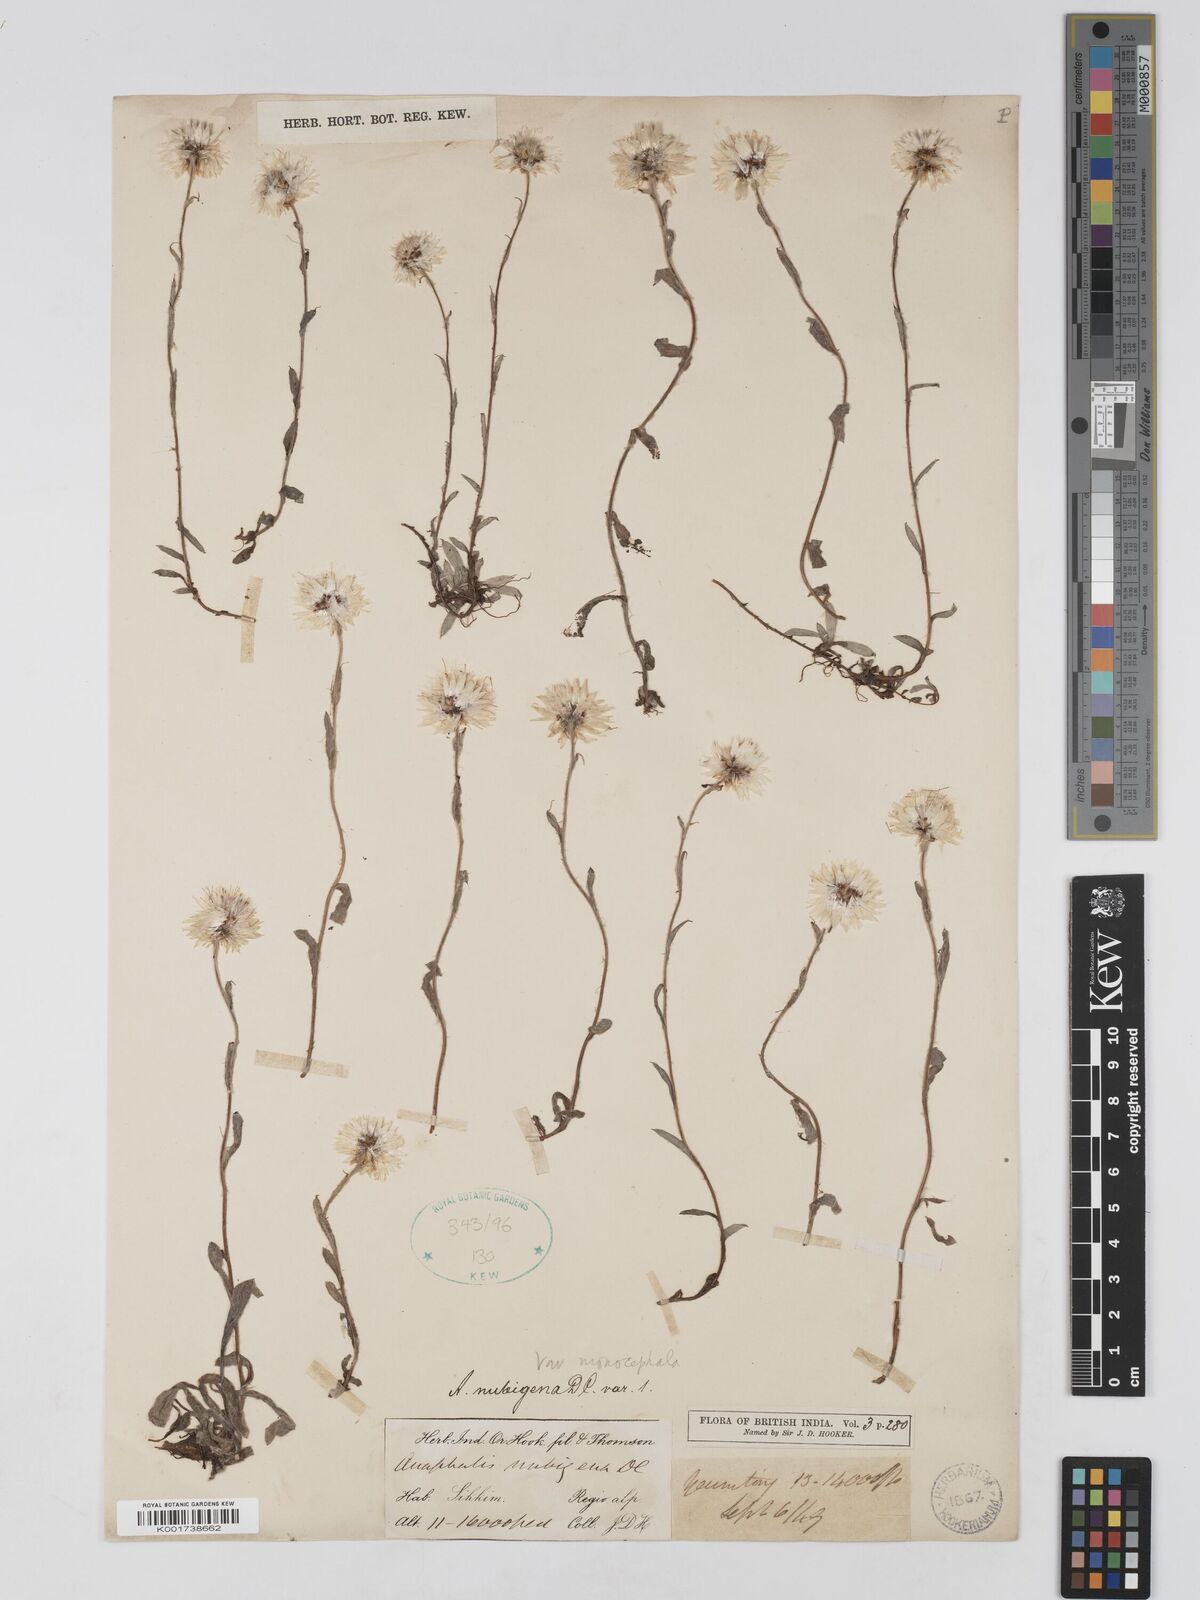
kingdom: Plantae
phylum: Tracheophyta
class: Magnoliopsida
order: Asterales
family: Asteraceae
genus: Anaphalis
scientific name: Anaphalis nepalensis
